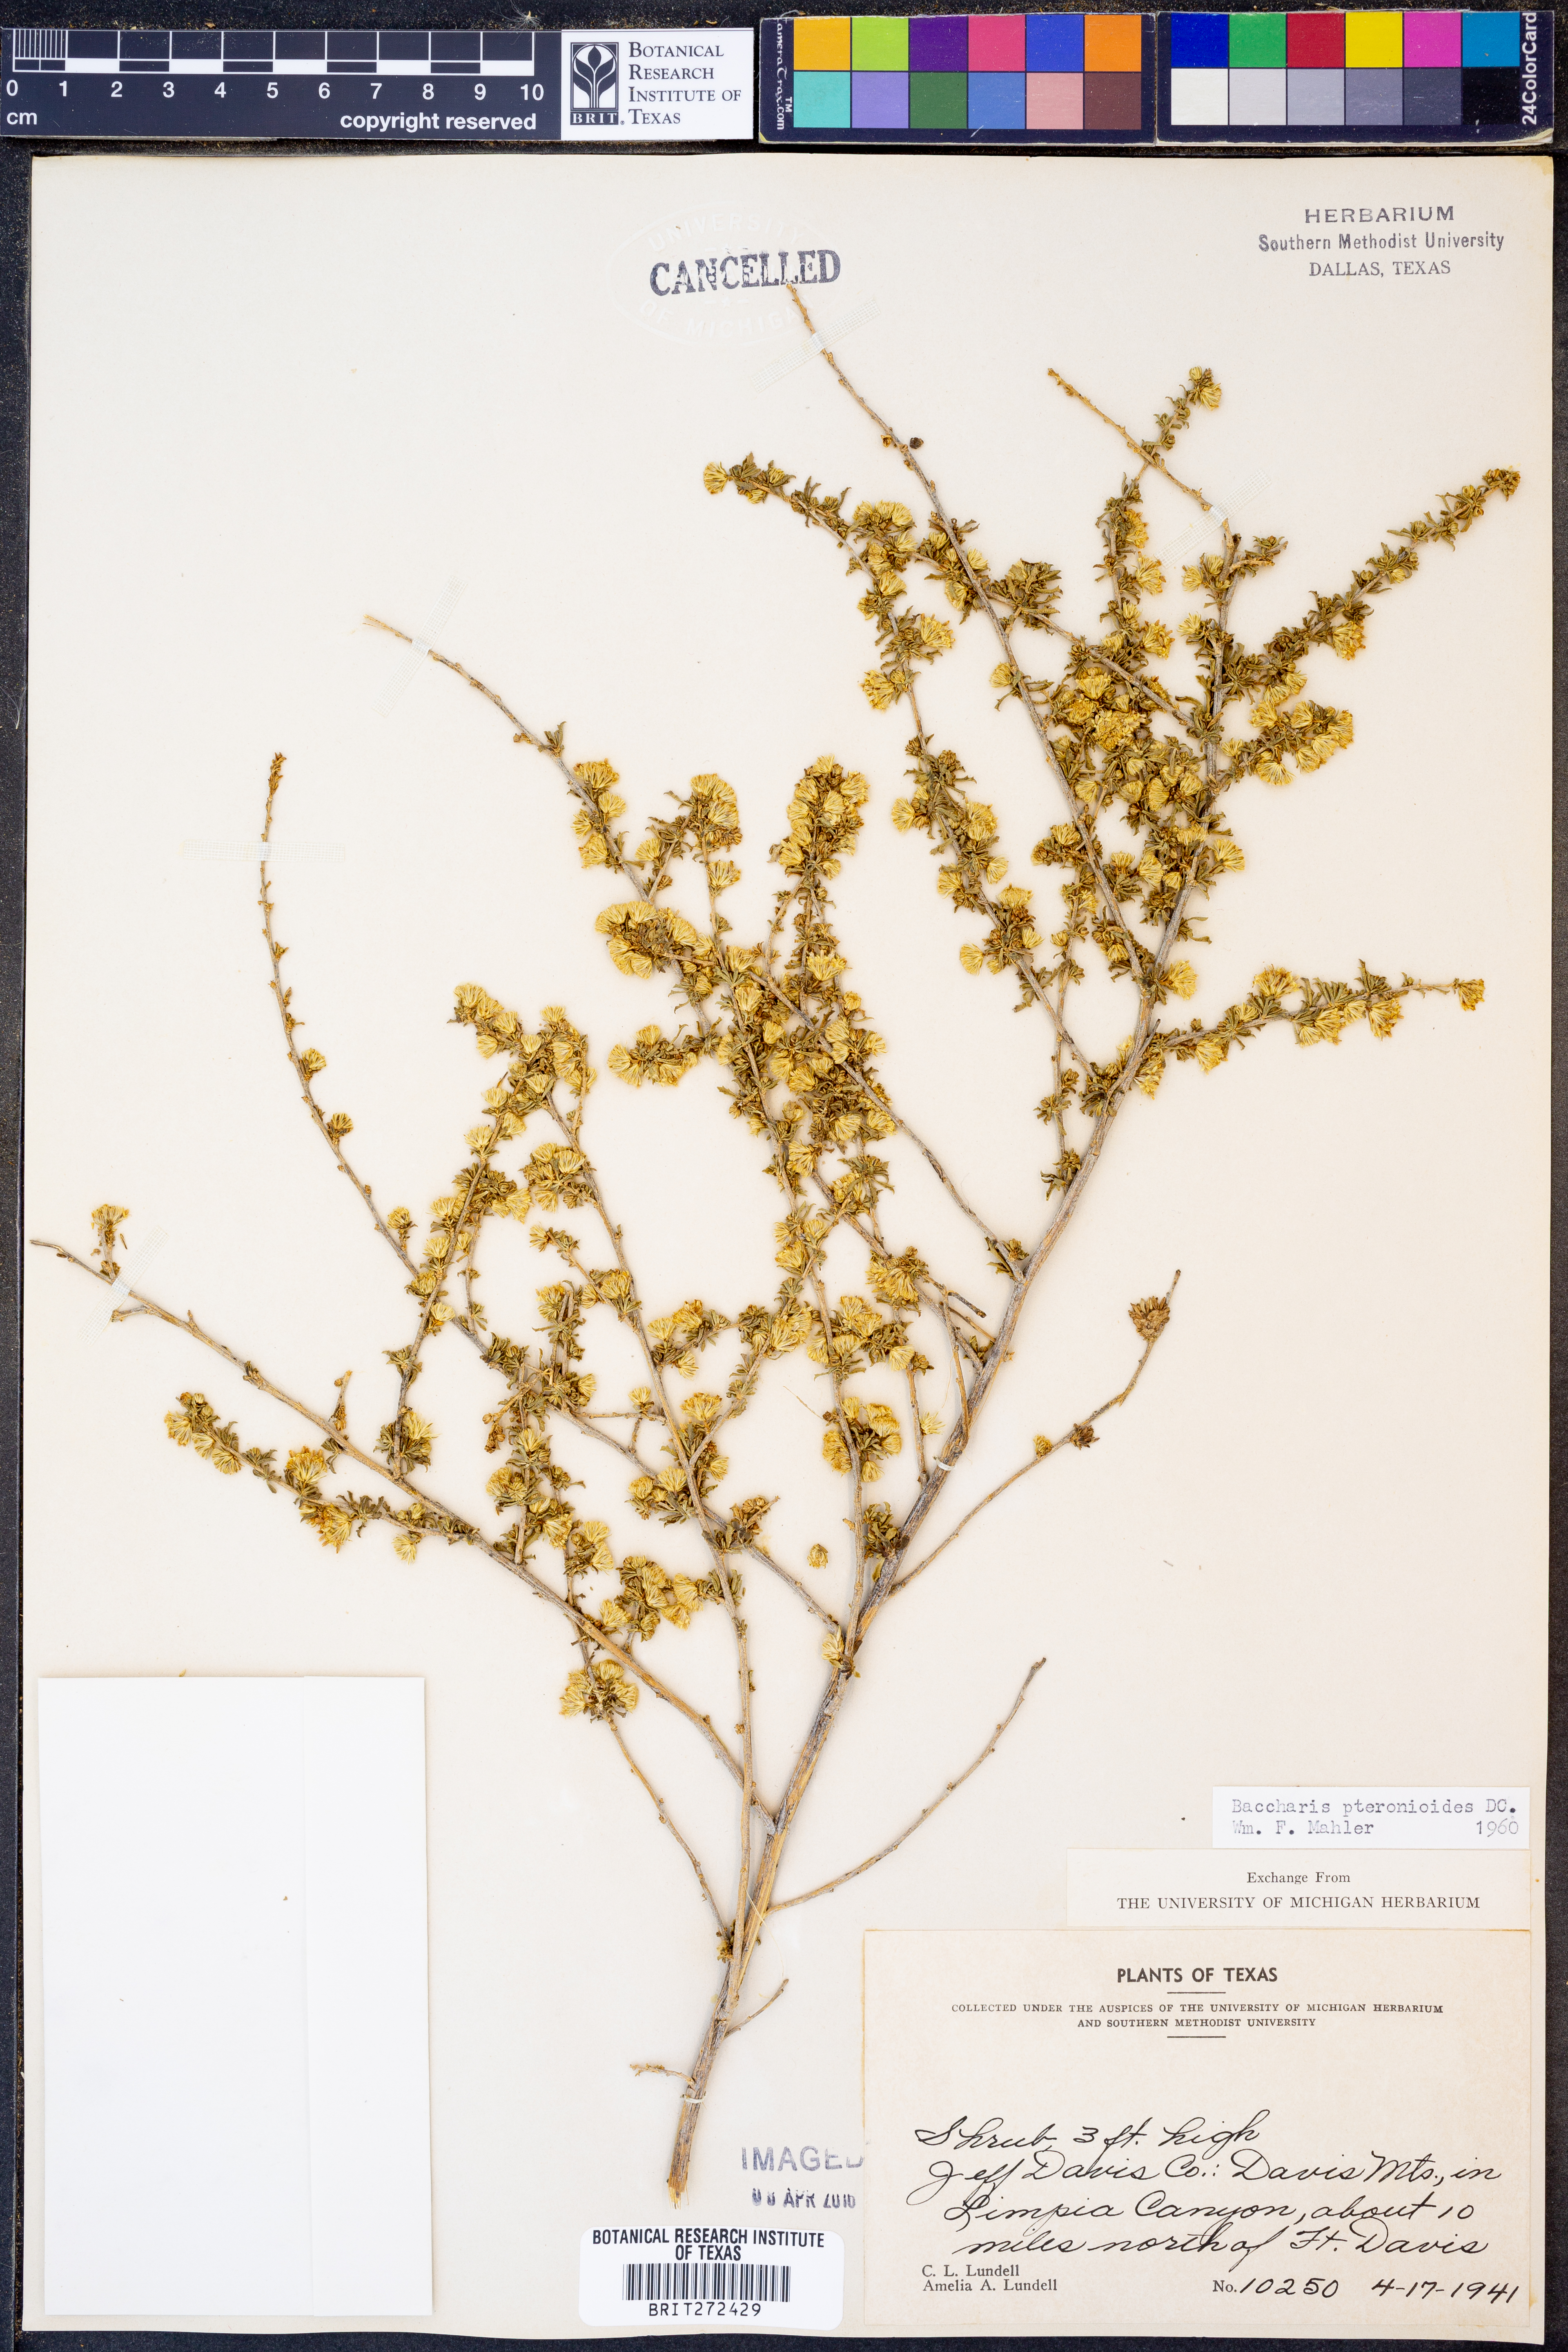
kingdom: Plantae
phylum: Tracheophyta
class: Magnoliopsida
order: Asterales
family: Asteraceae
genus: Baccharis
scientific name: Baccharis pteronioides
